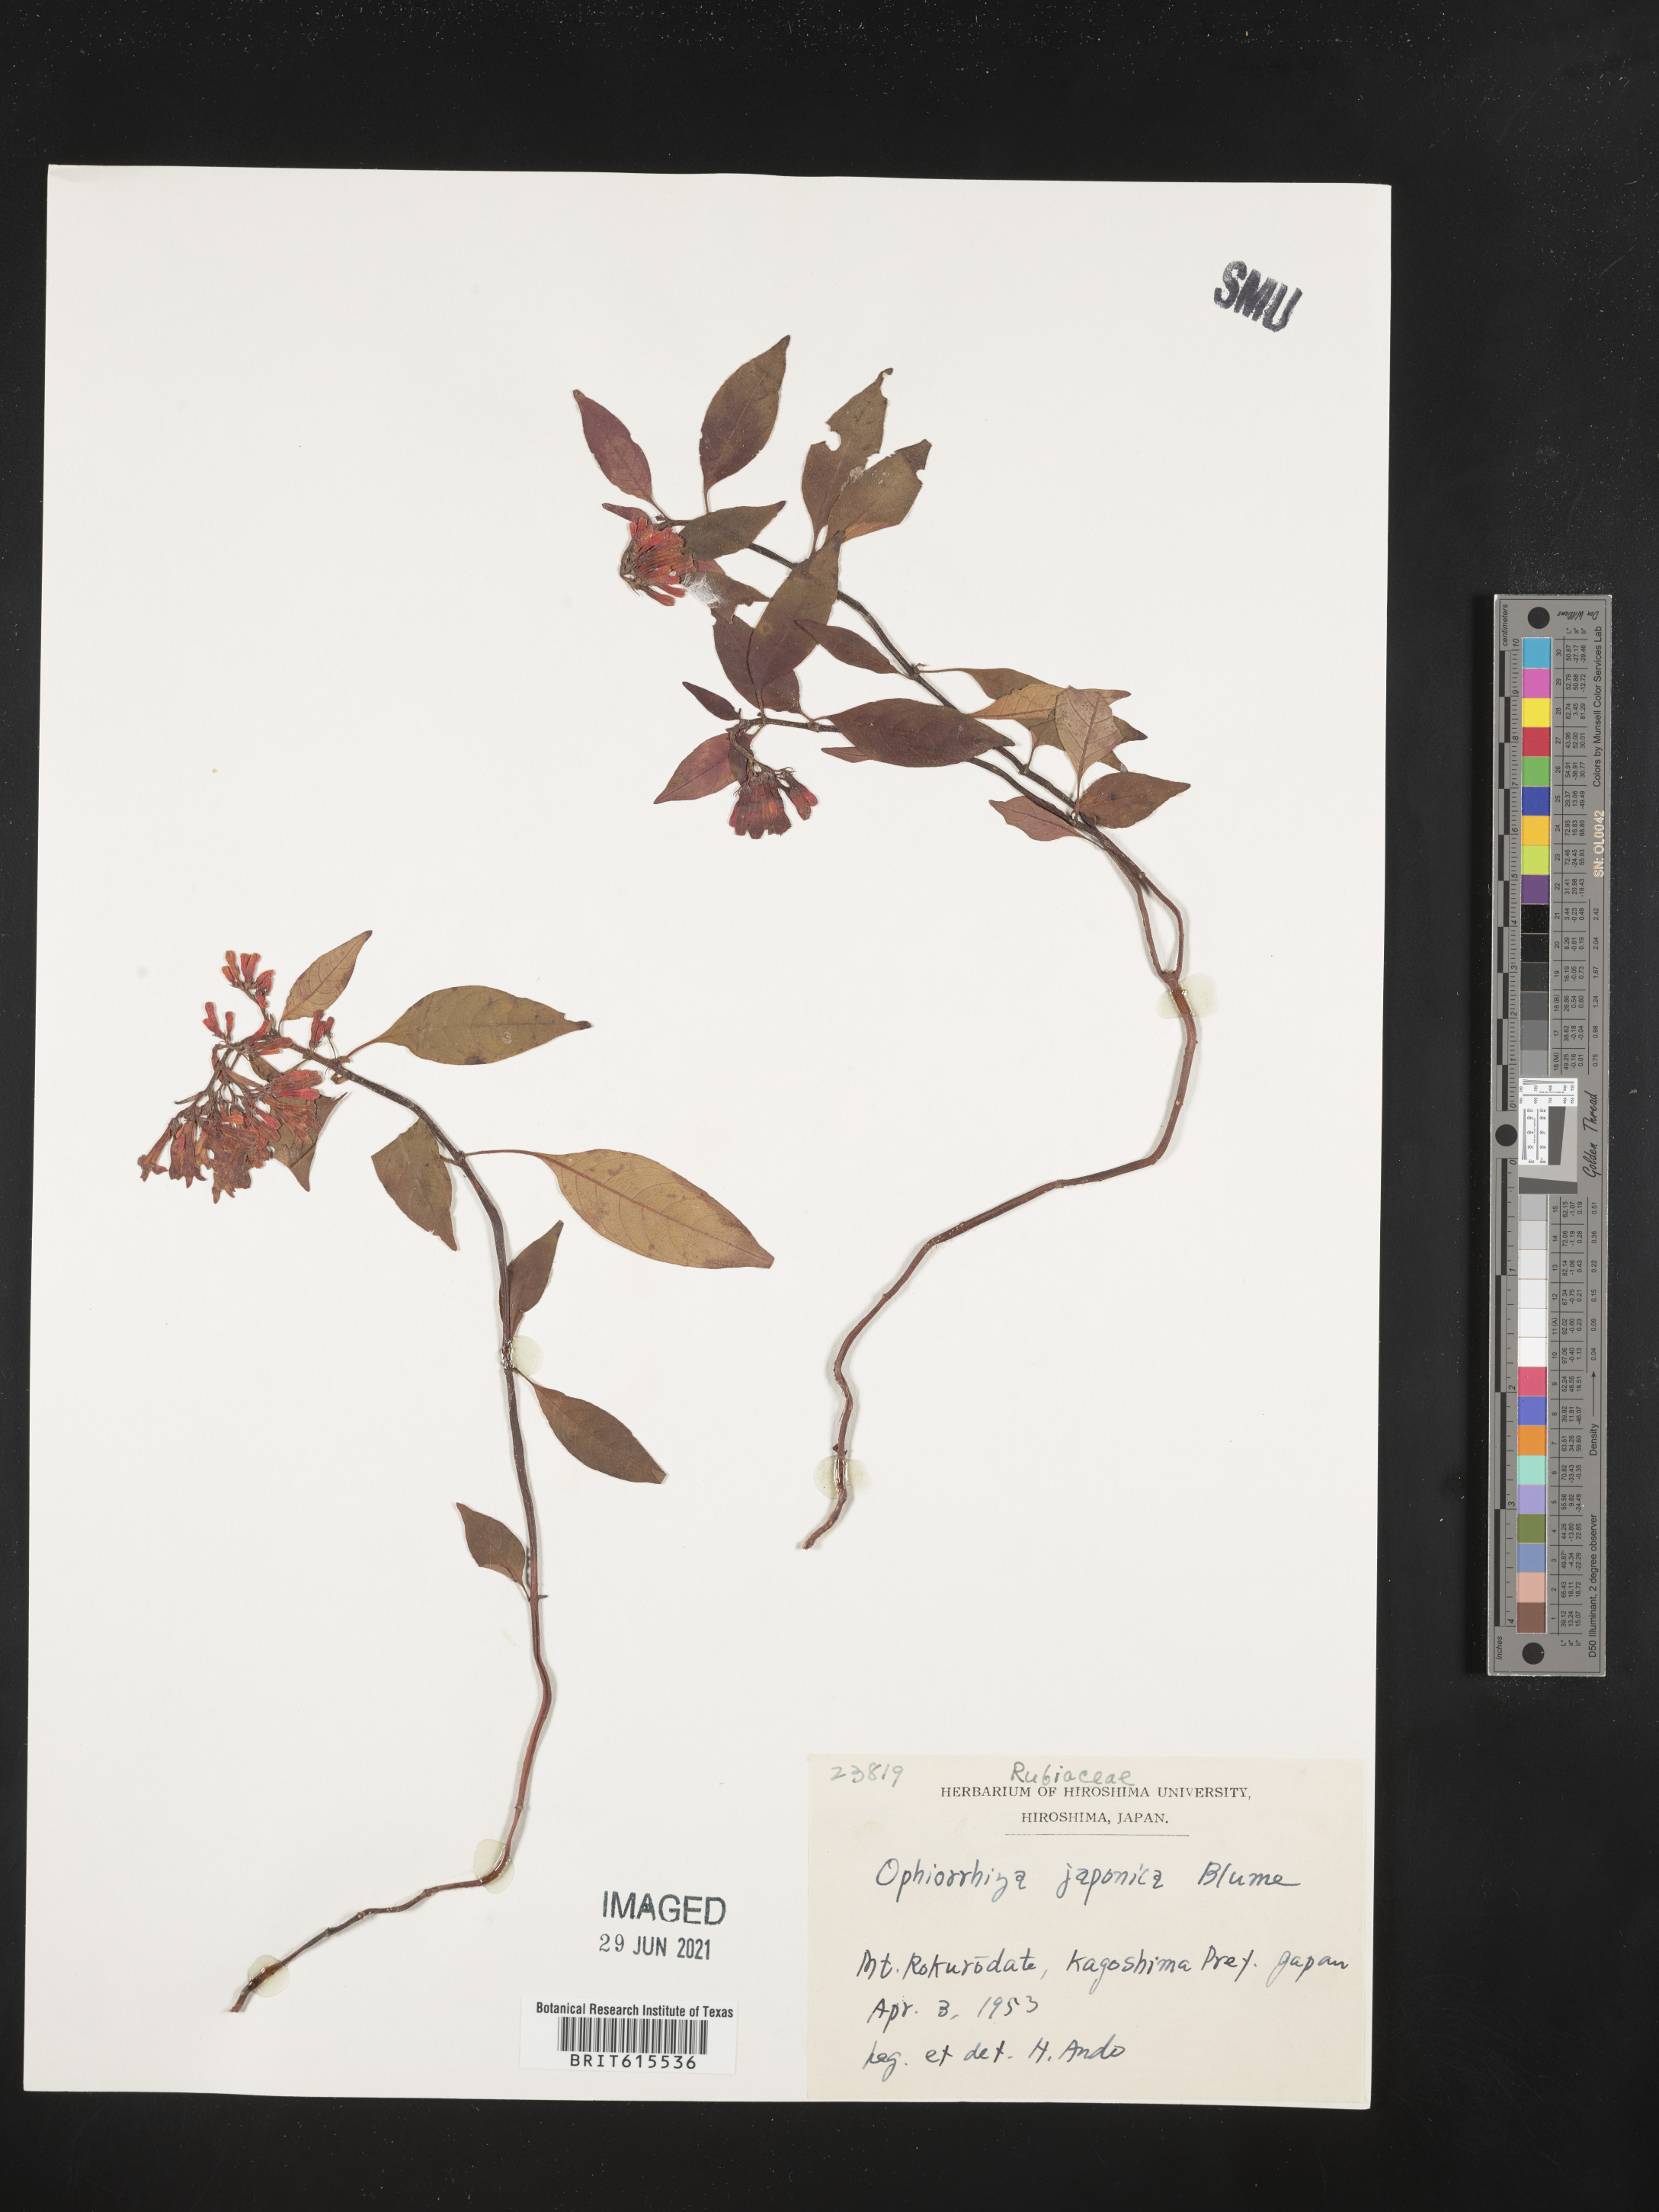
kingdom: Plantae
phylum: Tracheophyta
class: Magnoliopsida
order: Gentianales
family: Rubiaceae
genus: Ophiorrhiza
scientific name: Ophiorrhiza japonica
